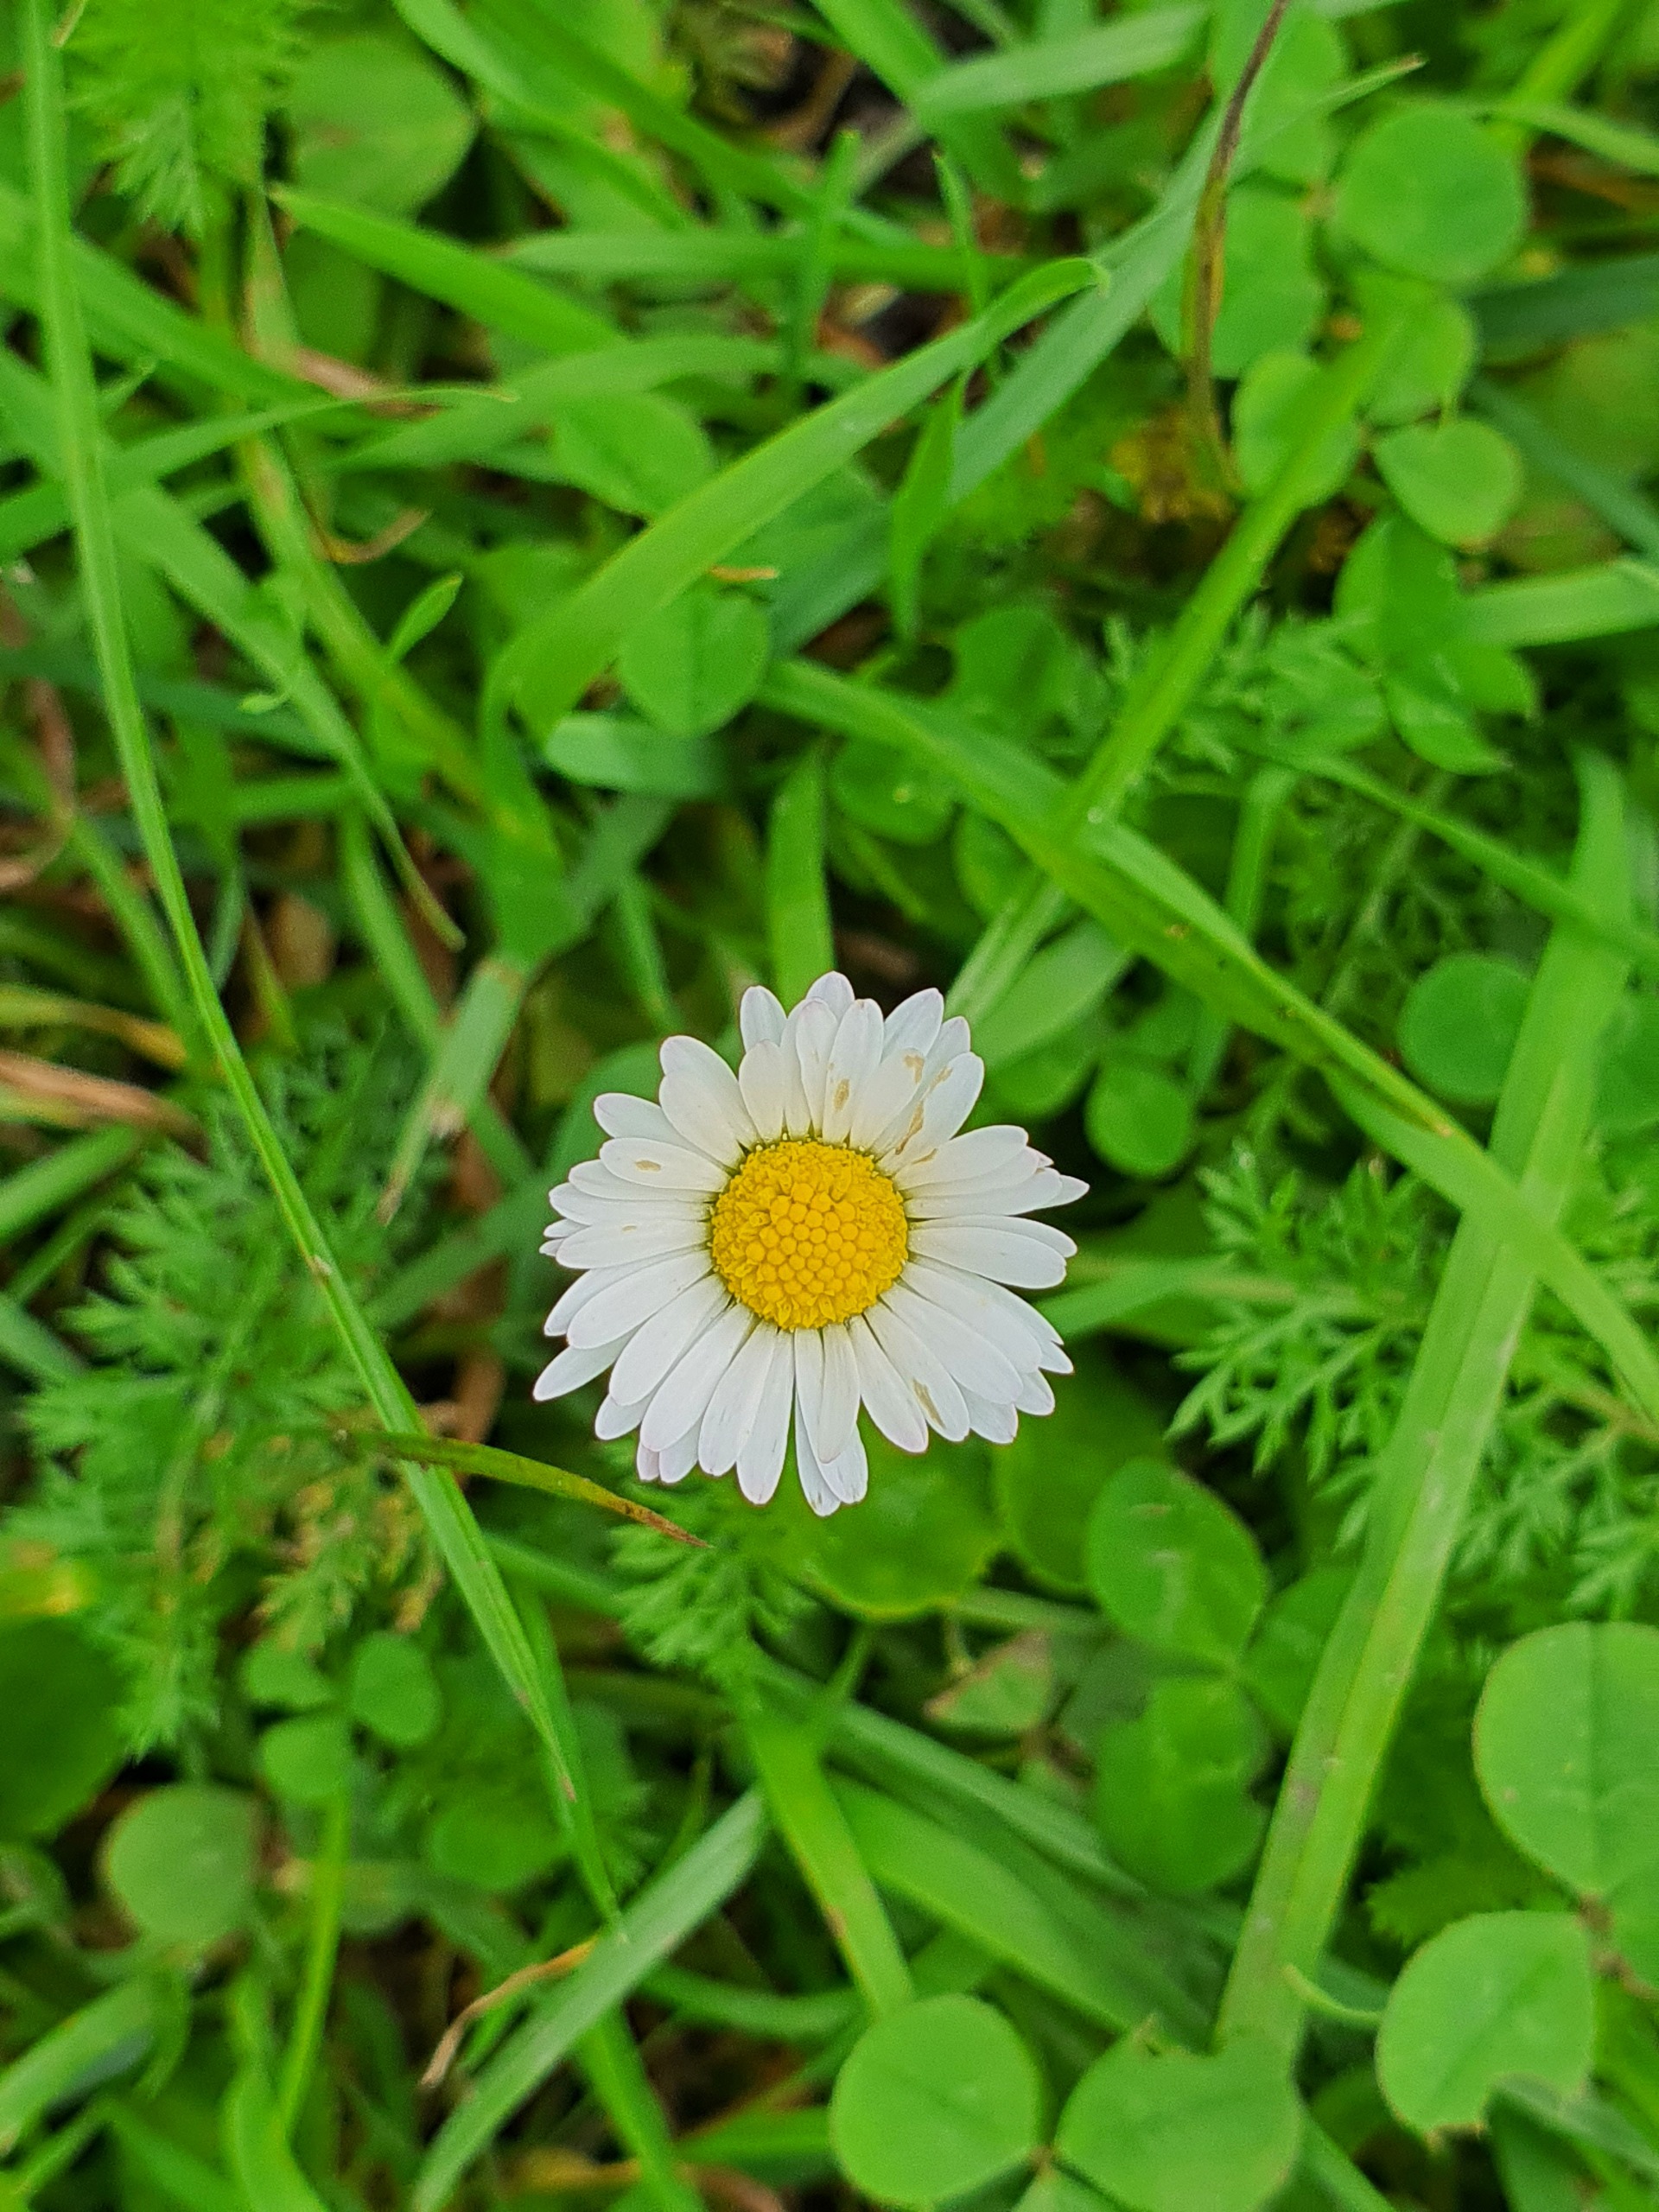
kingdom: Plantae
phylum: Tracheophyta
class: Magnoliopsida
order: Asterales
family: Asteraceae
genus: Bellis
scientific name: Bellis perennis
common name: Tusindfryd
